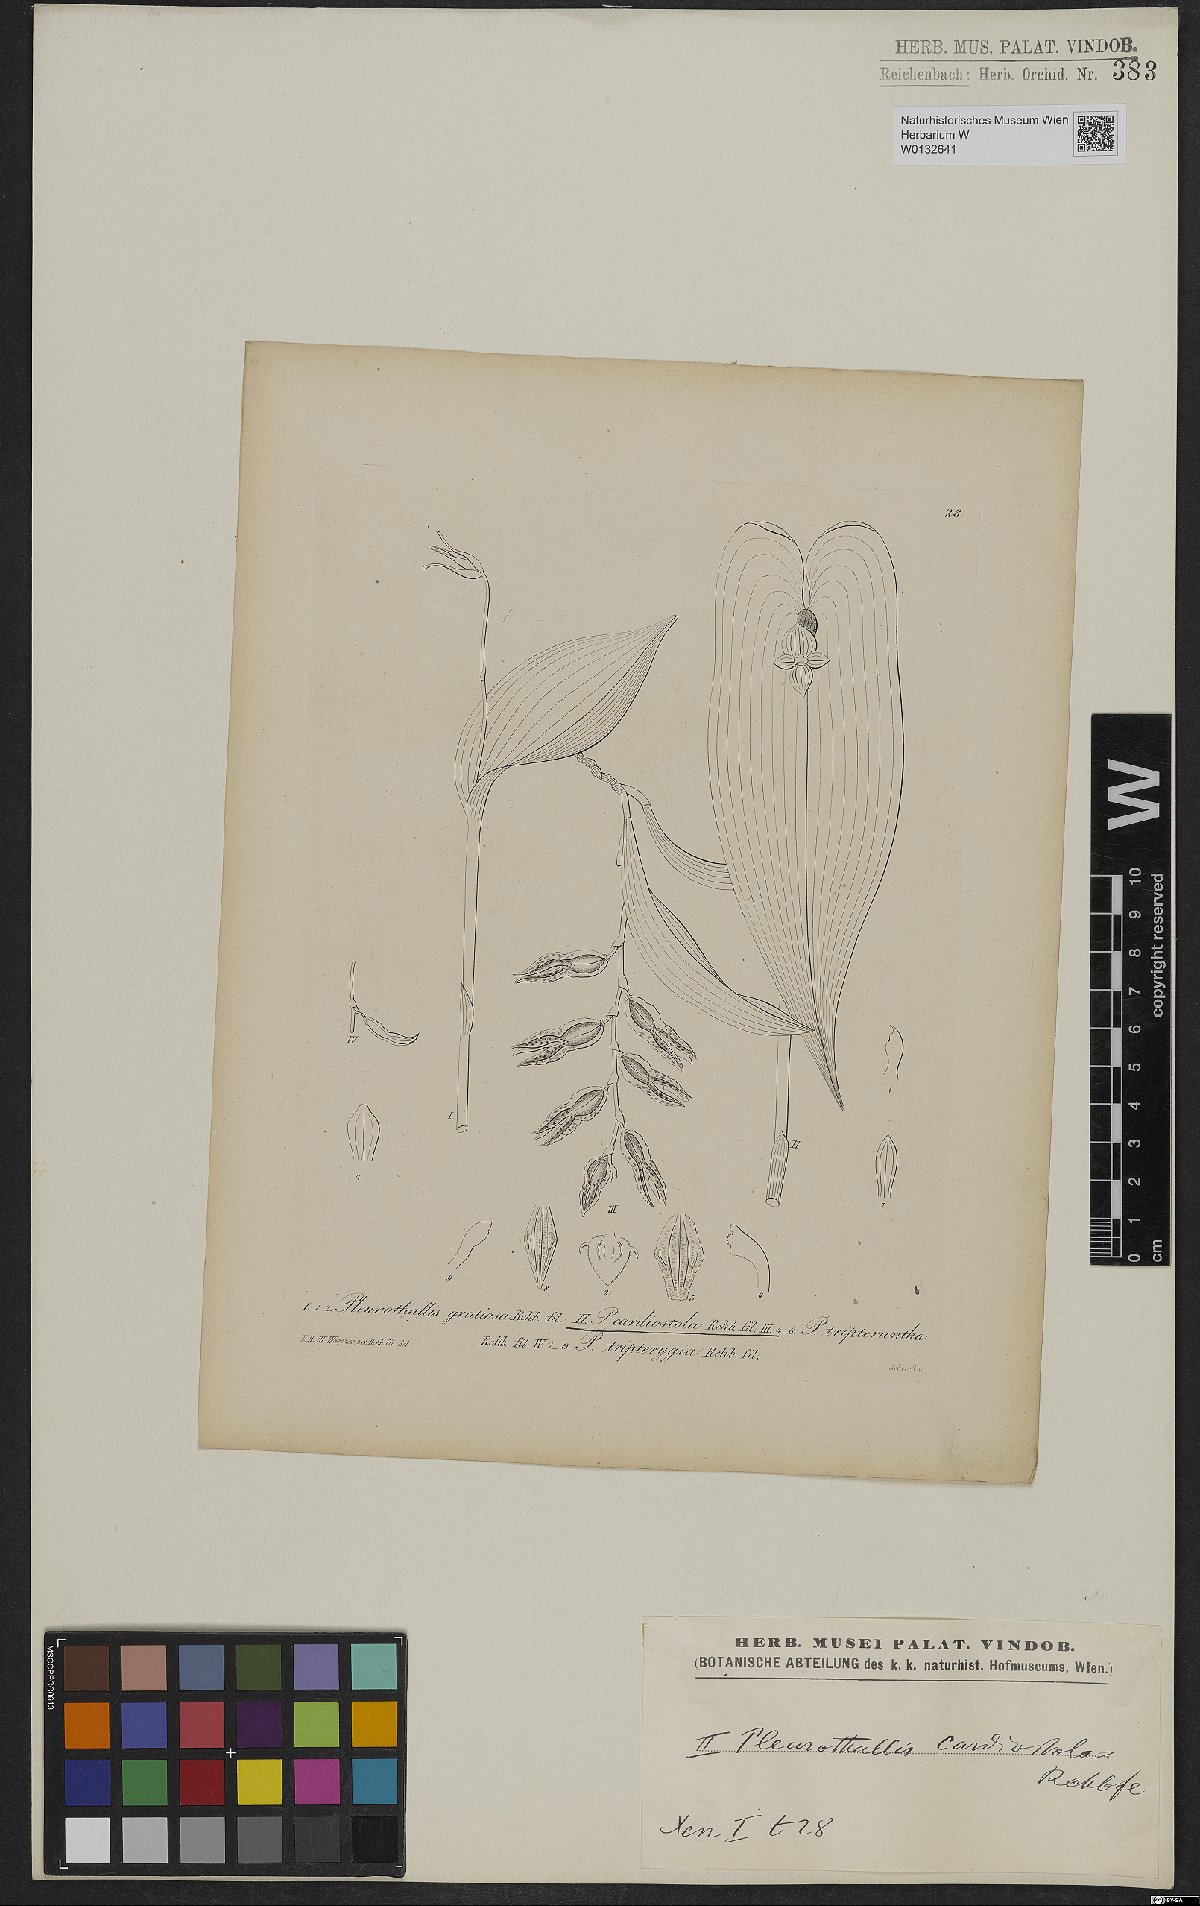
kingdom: Plantae
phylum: Tracheophyta
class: Liliopsida
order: Asparagales
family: Orchidaceae
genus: Pleurothallis
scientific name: Pleurothallis cardiostola
